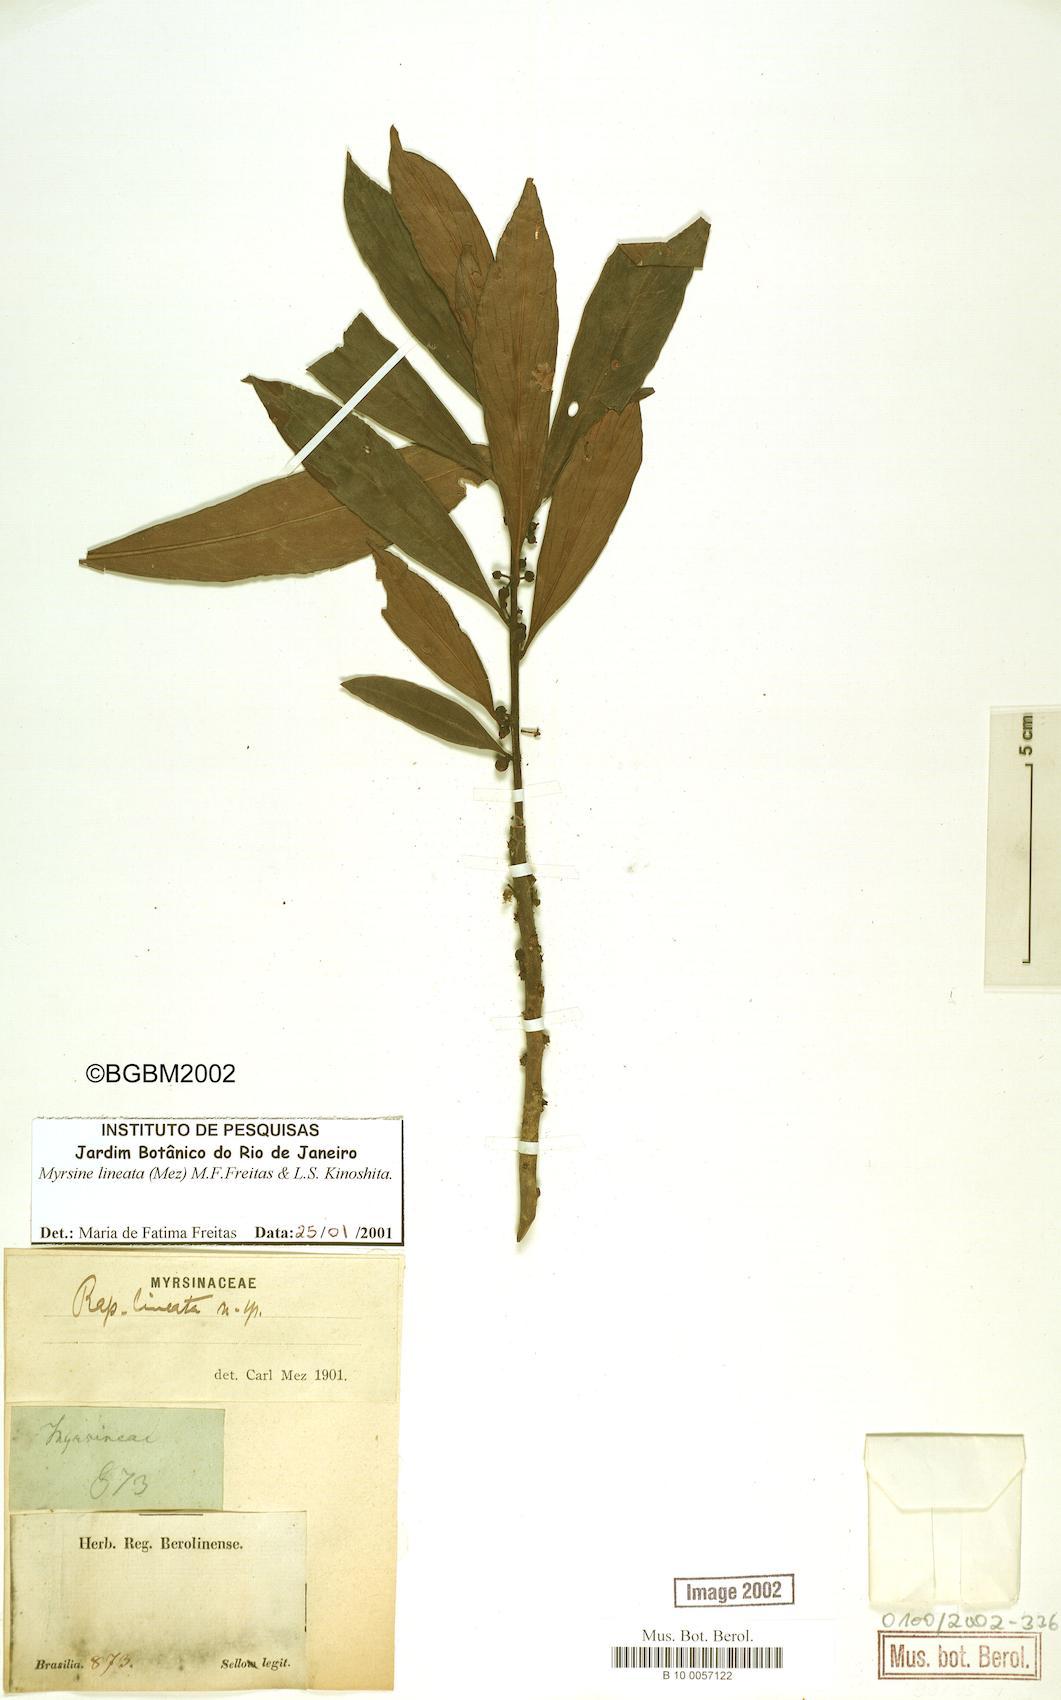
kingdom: Plantae
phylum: Tracheophyta
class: Magnoliopsida
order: Ericales
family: Primulaceae
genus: Myrsine
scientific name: Myrsine lineata
